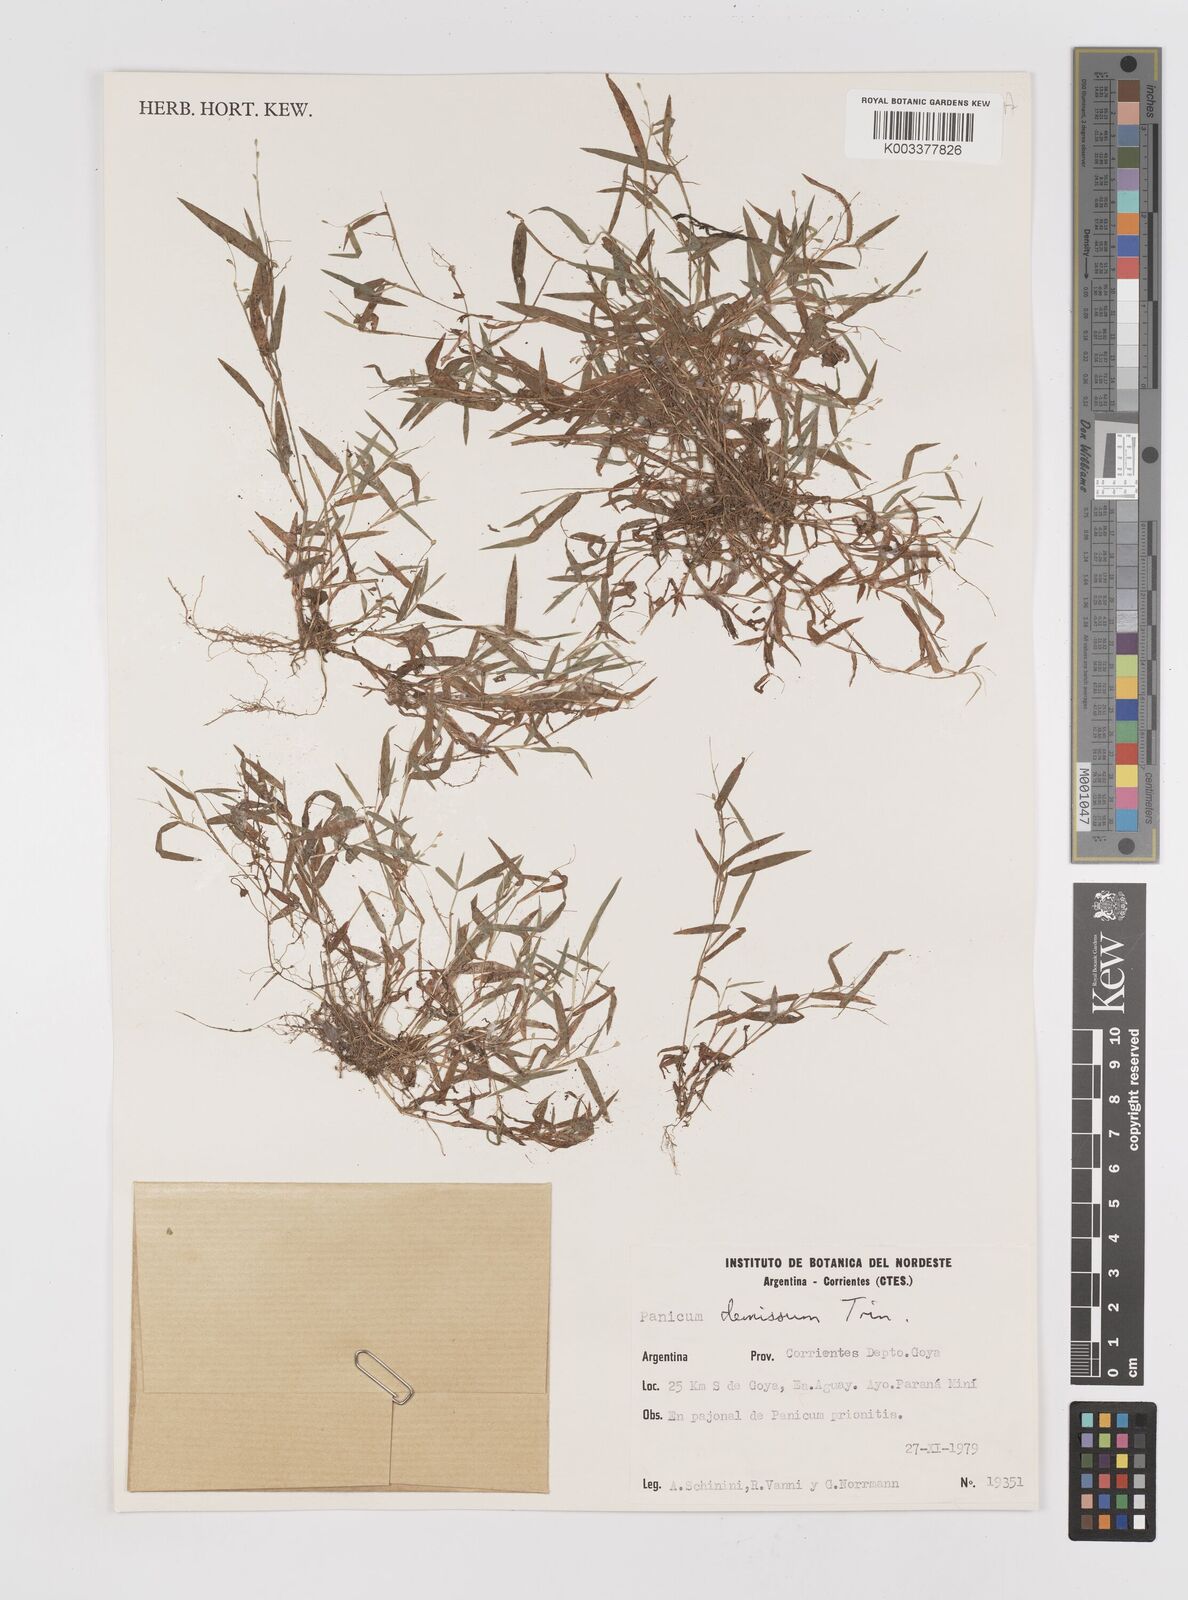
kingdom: Plantae
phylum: Tracheophyta
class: Liliopsida
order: Poales
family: Poaceae
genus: Dichanthelium
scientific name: Dichanthelium sabulorum
